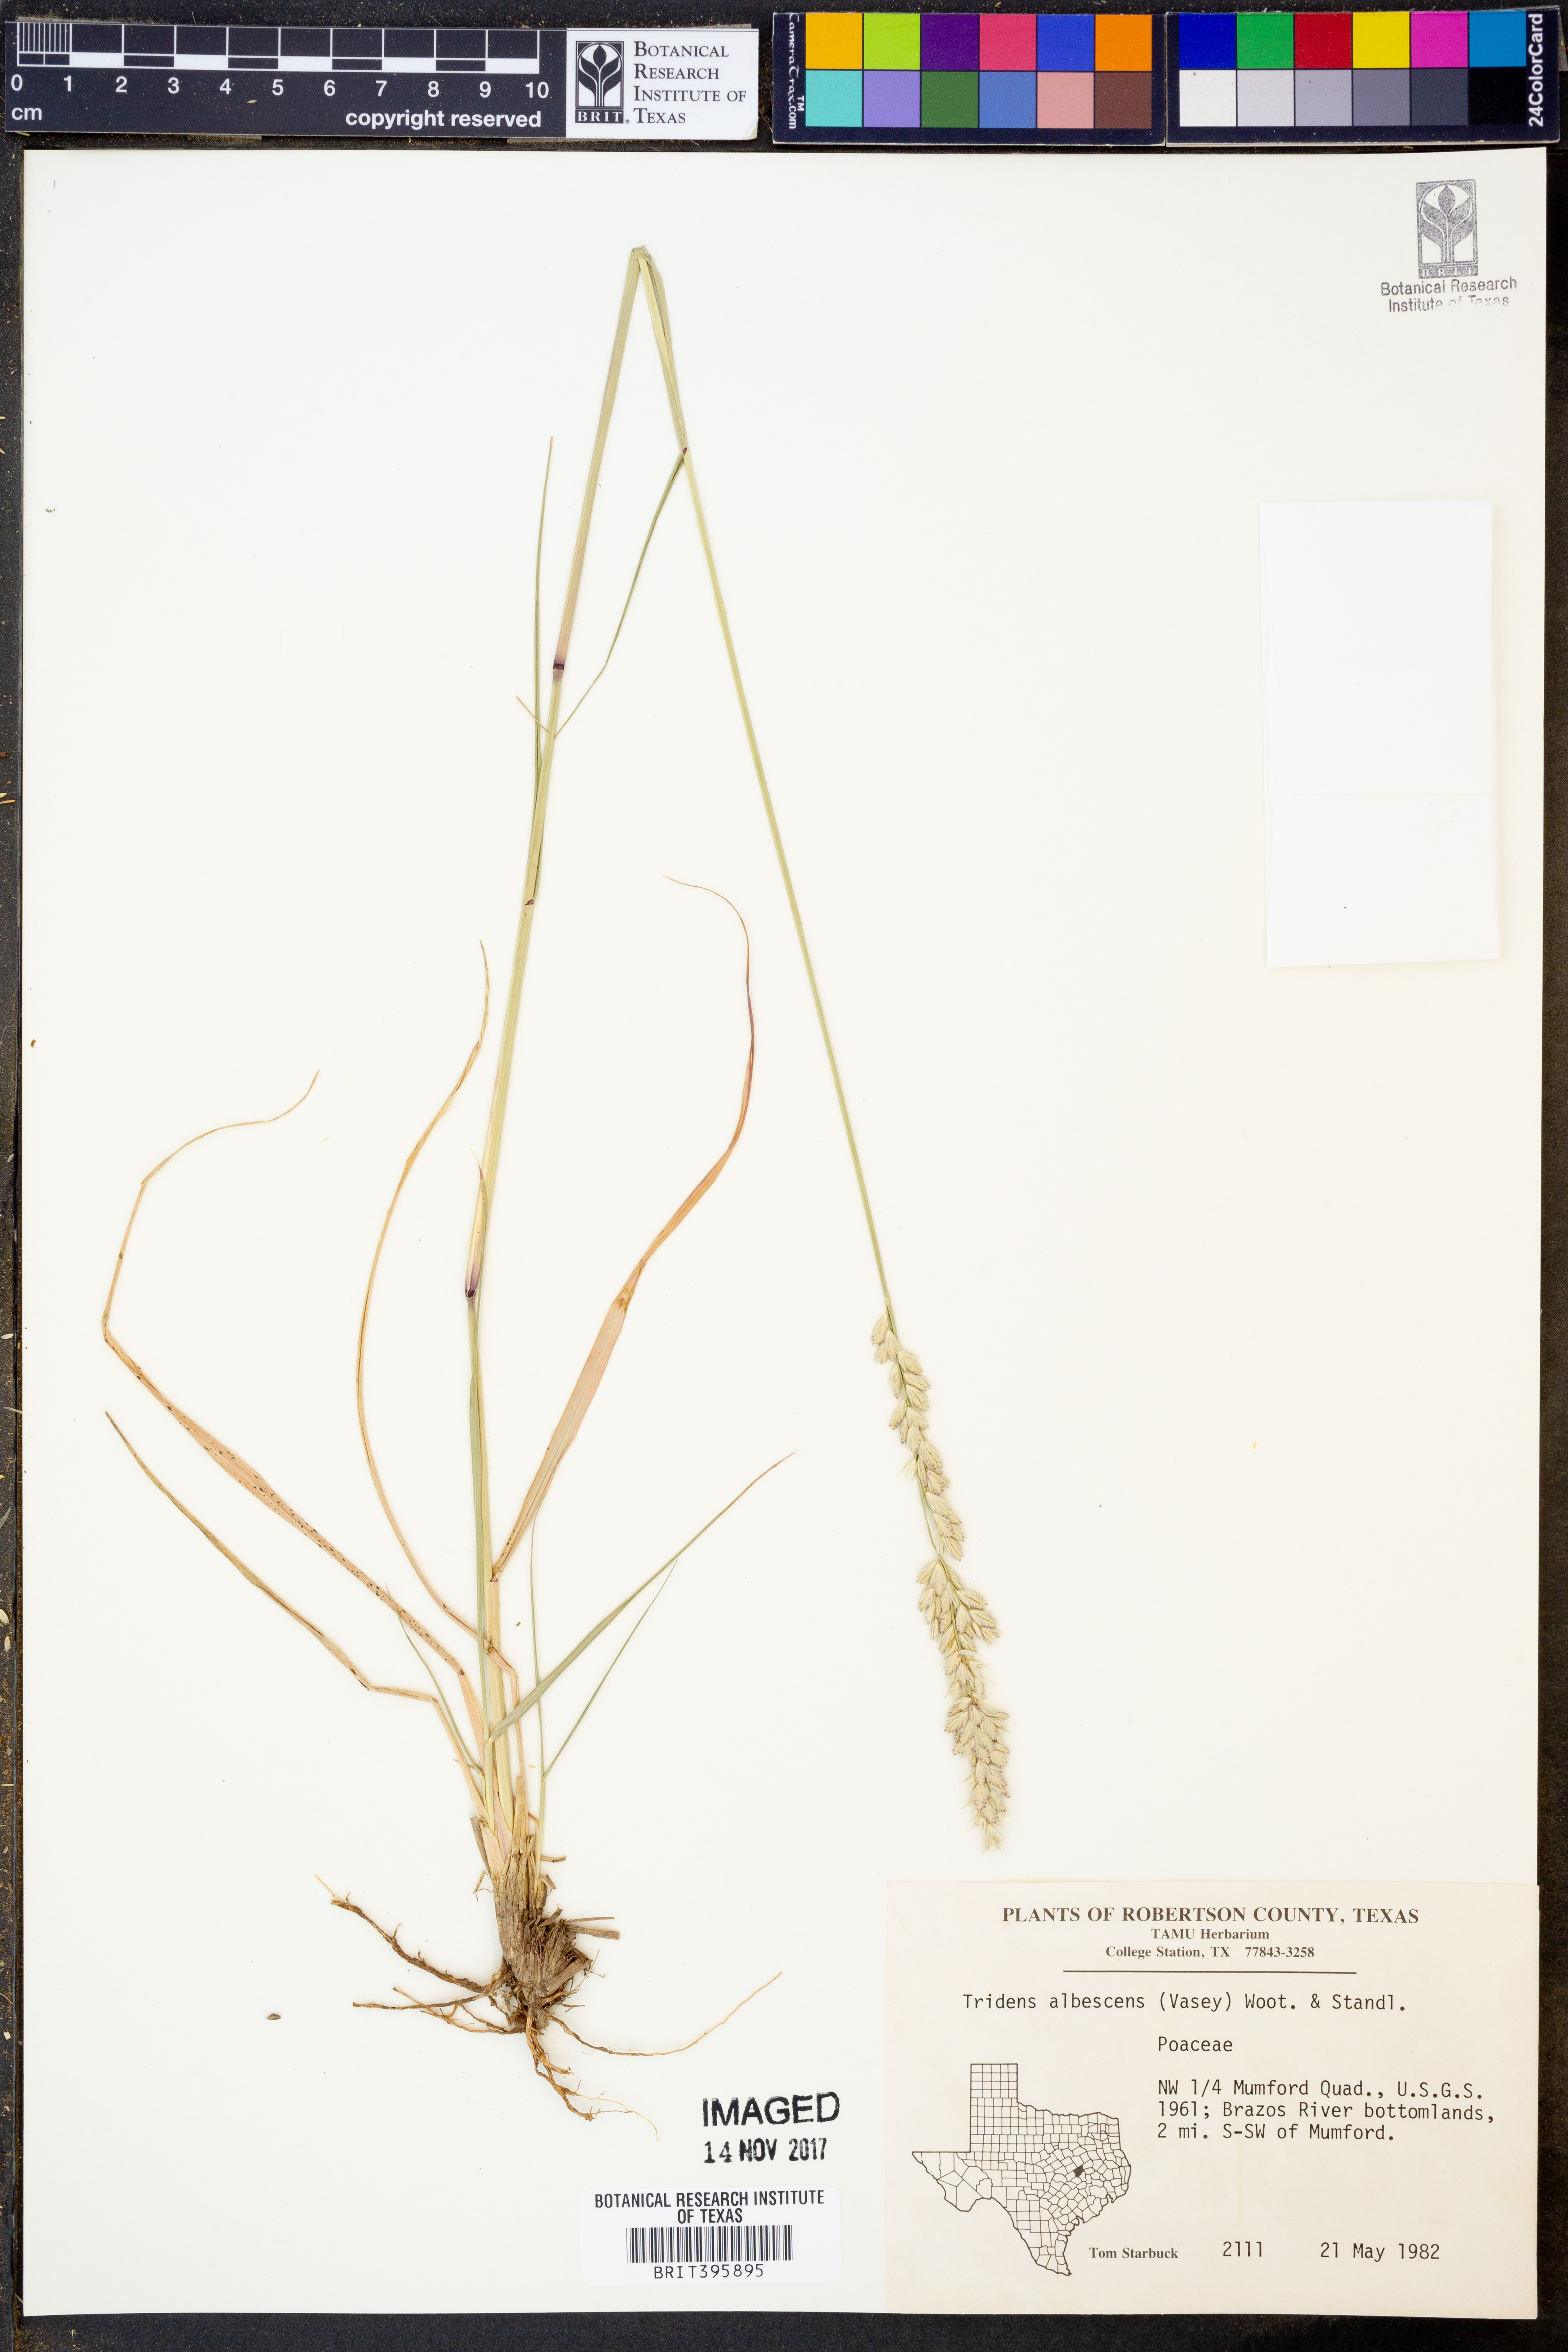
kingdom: Plantae
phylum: Tracheophyta
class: Liliopsida
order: Poales
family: Poaceae
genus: Tridens
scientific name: Tridens albescens
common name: White tridens
